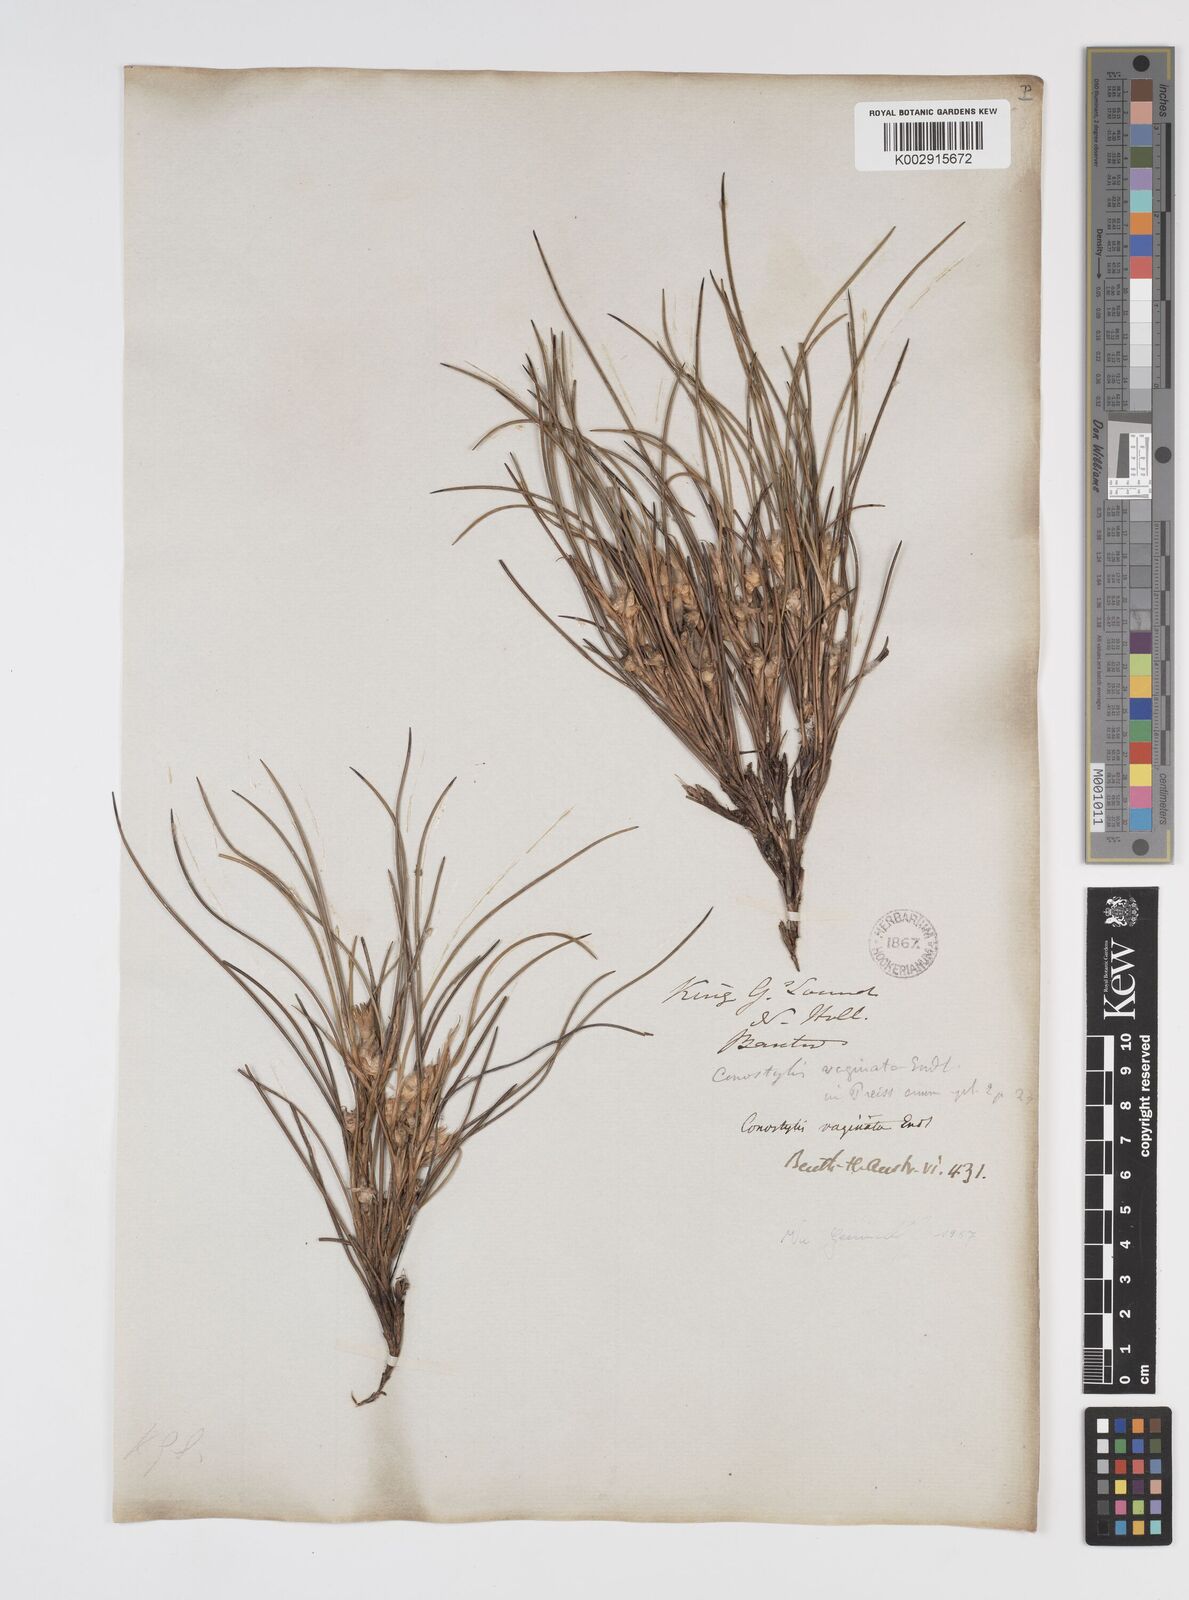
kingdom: Plantae
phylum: Tracheophyta
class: Liliopsida
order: Commelinales
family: Haemodoraceae
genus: Conostylis
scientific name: Conostylis vaginata
